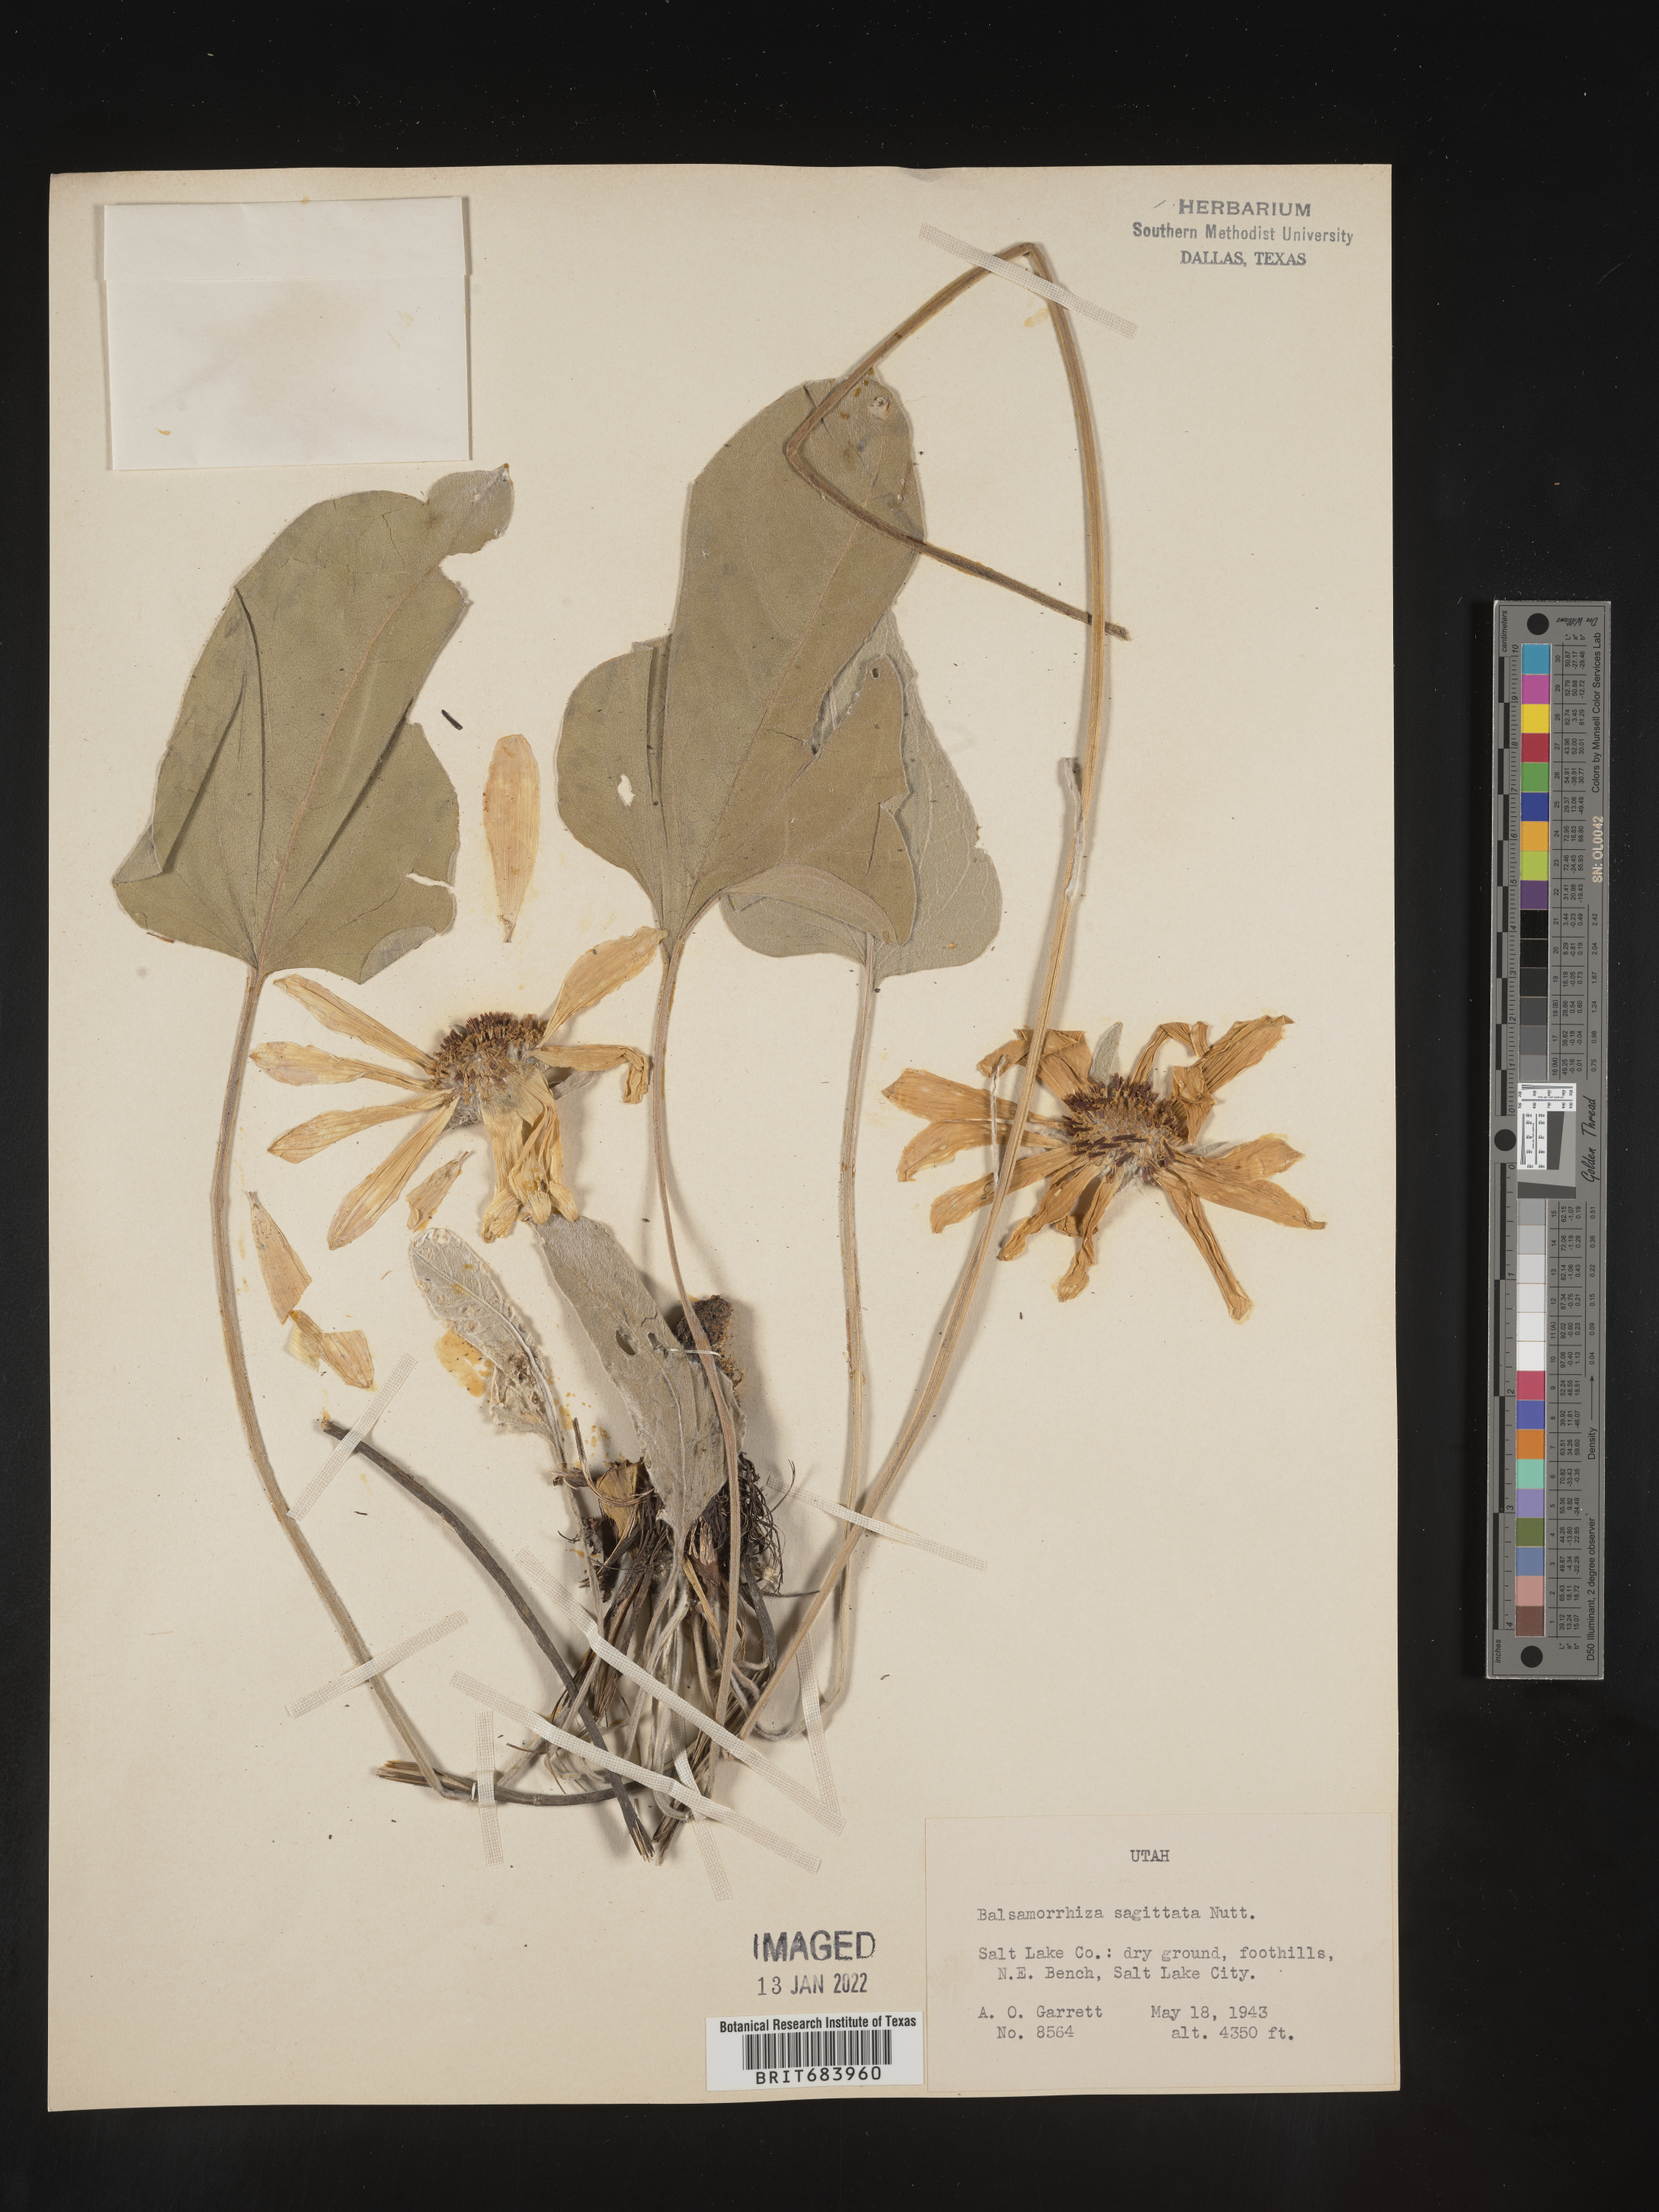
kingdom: Plantae
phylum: Tracheophyta
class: Magnoliopsida
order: Asterales
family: Asteraceae
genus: Wyethia
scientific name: Wyethia sagittata
